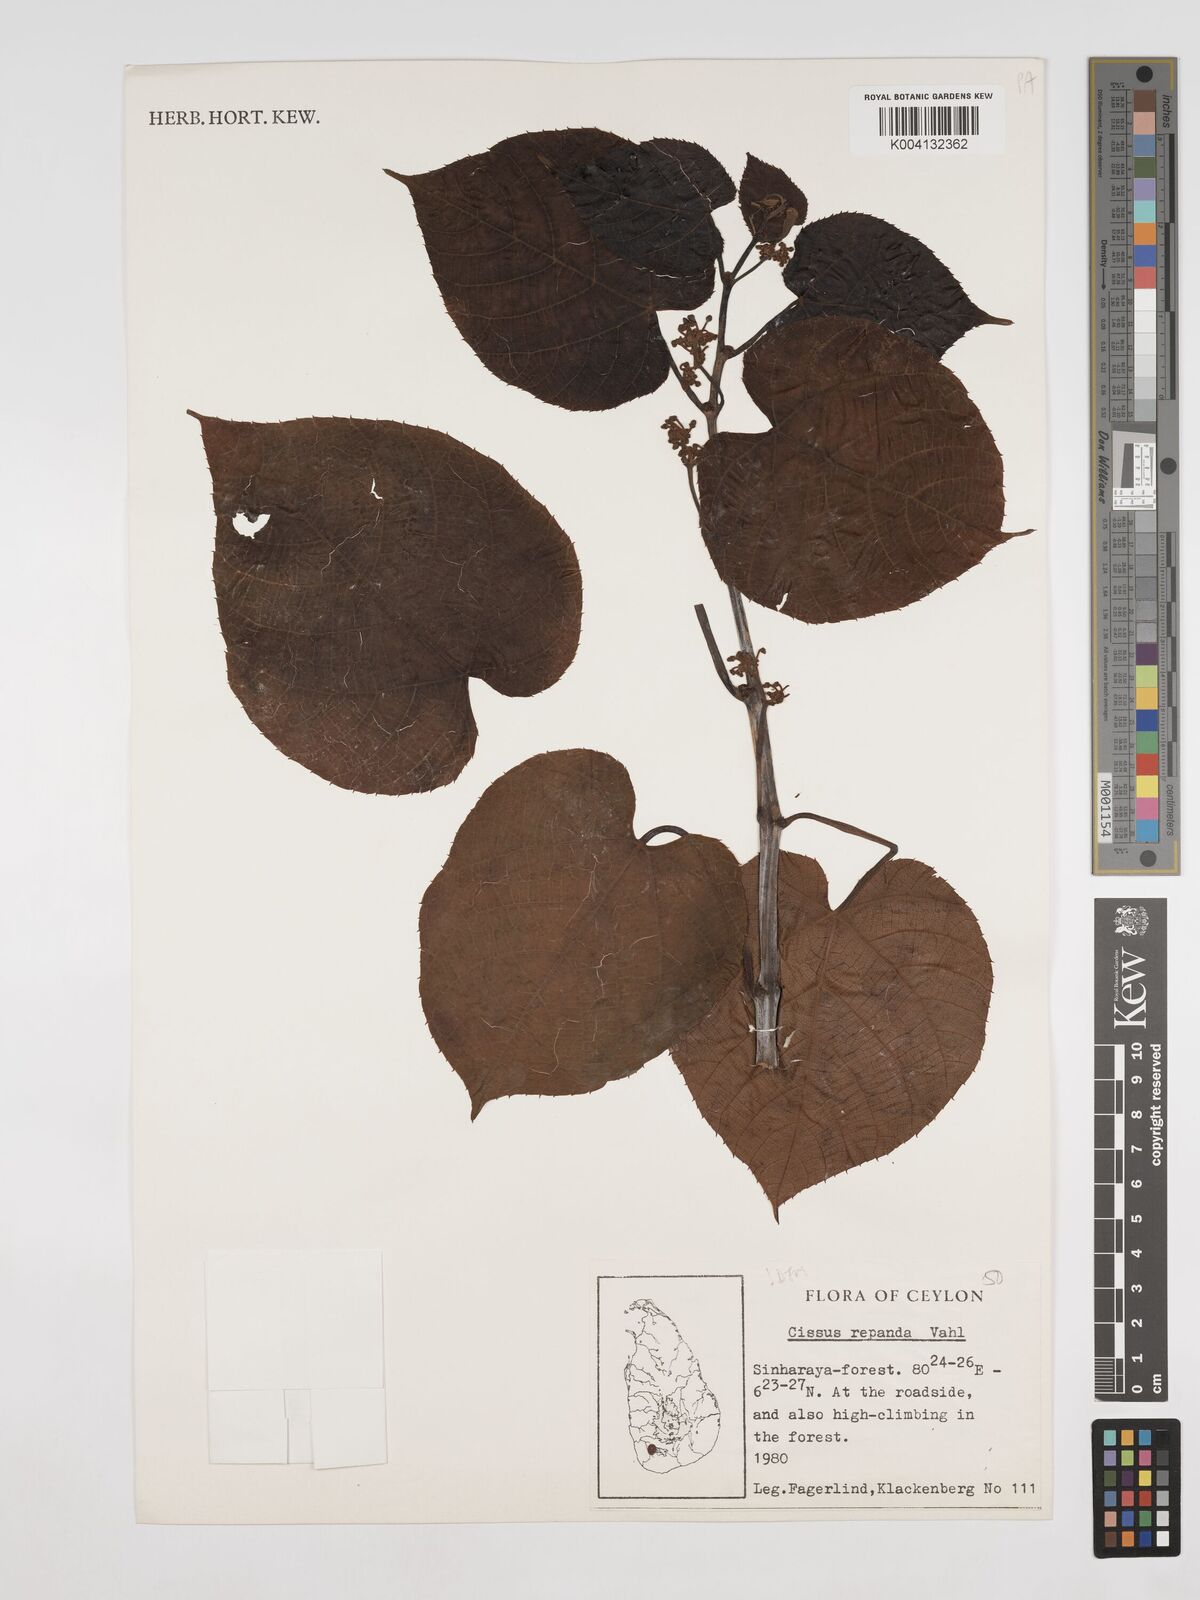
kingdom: Plantae
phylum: Tracheophyta
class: Magnoliopsida
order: Vitales
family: Vitaceae
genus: Cissus
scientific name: Cissus
